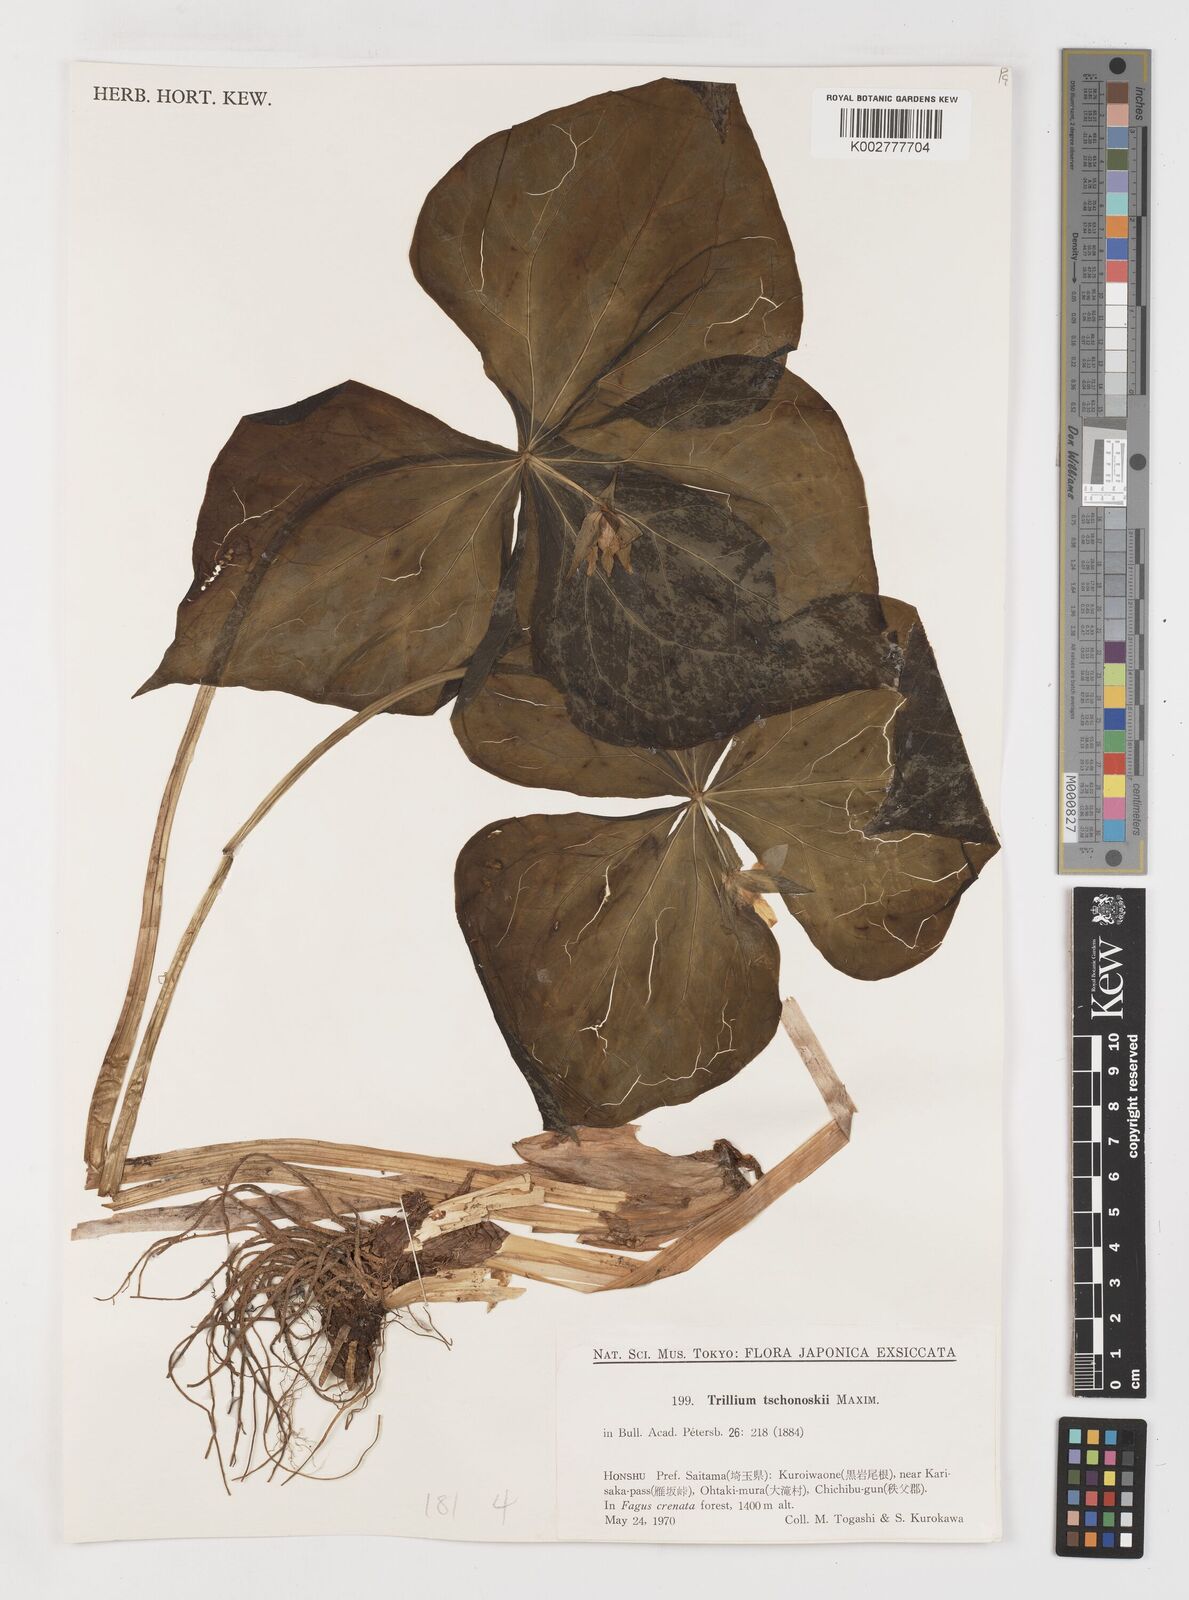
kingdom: Plantae
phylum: Tracheophyta
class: Liliopsida
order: Liliales
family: Melanthiaceae
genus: Trillium
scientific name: Trillium tschonoskii
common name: A pearl on head
